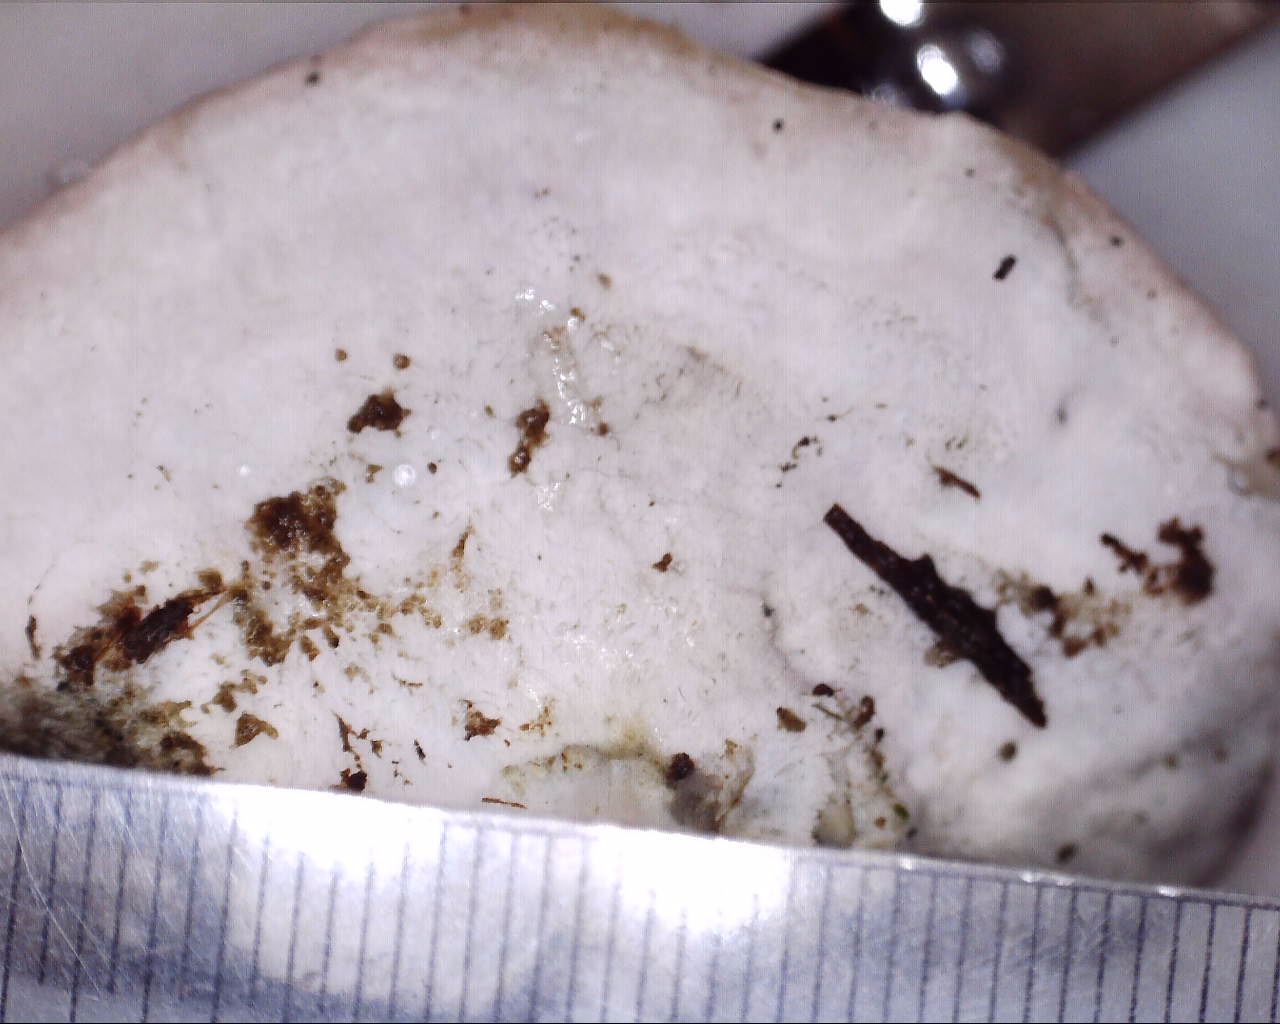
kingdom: Fungi
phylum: Basidiomycota
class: Agaricomycetes
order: Polyporales
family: Polyporaceae
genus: Cyanosporus
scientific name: Cyanosporus alni
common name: blegblå kødporesvamp
